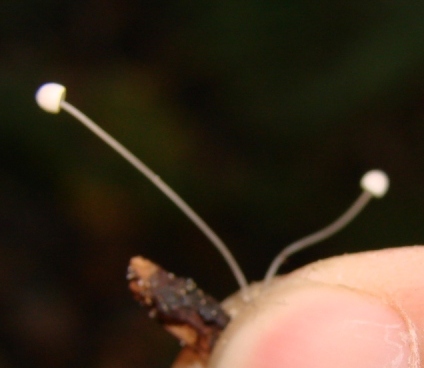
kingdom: Fungi
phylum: Basidiomycota
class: Agaricomycetes
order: Agaricales
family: Mycenaceae
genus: Mycena
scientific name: Mycena mirata
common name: krat-huesvamp
